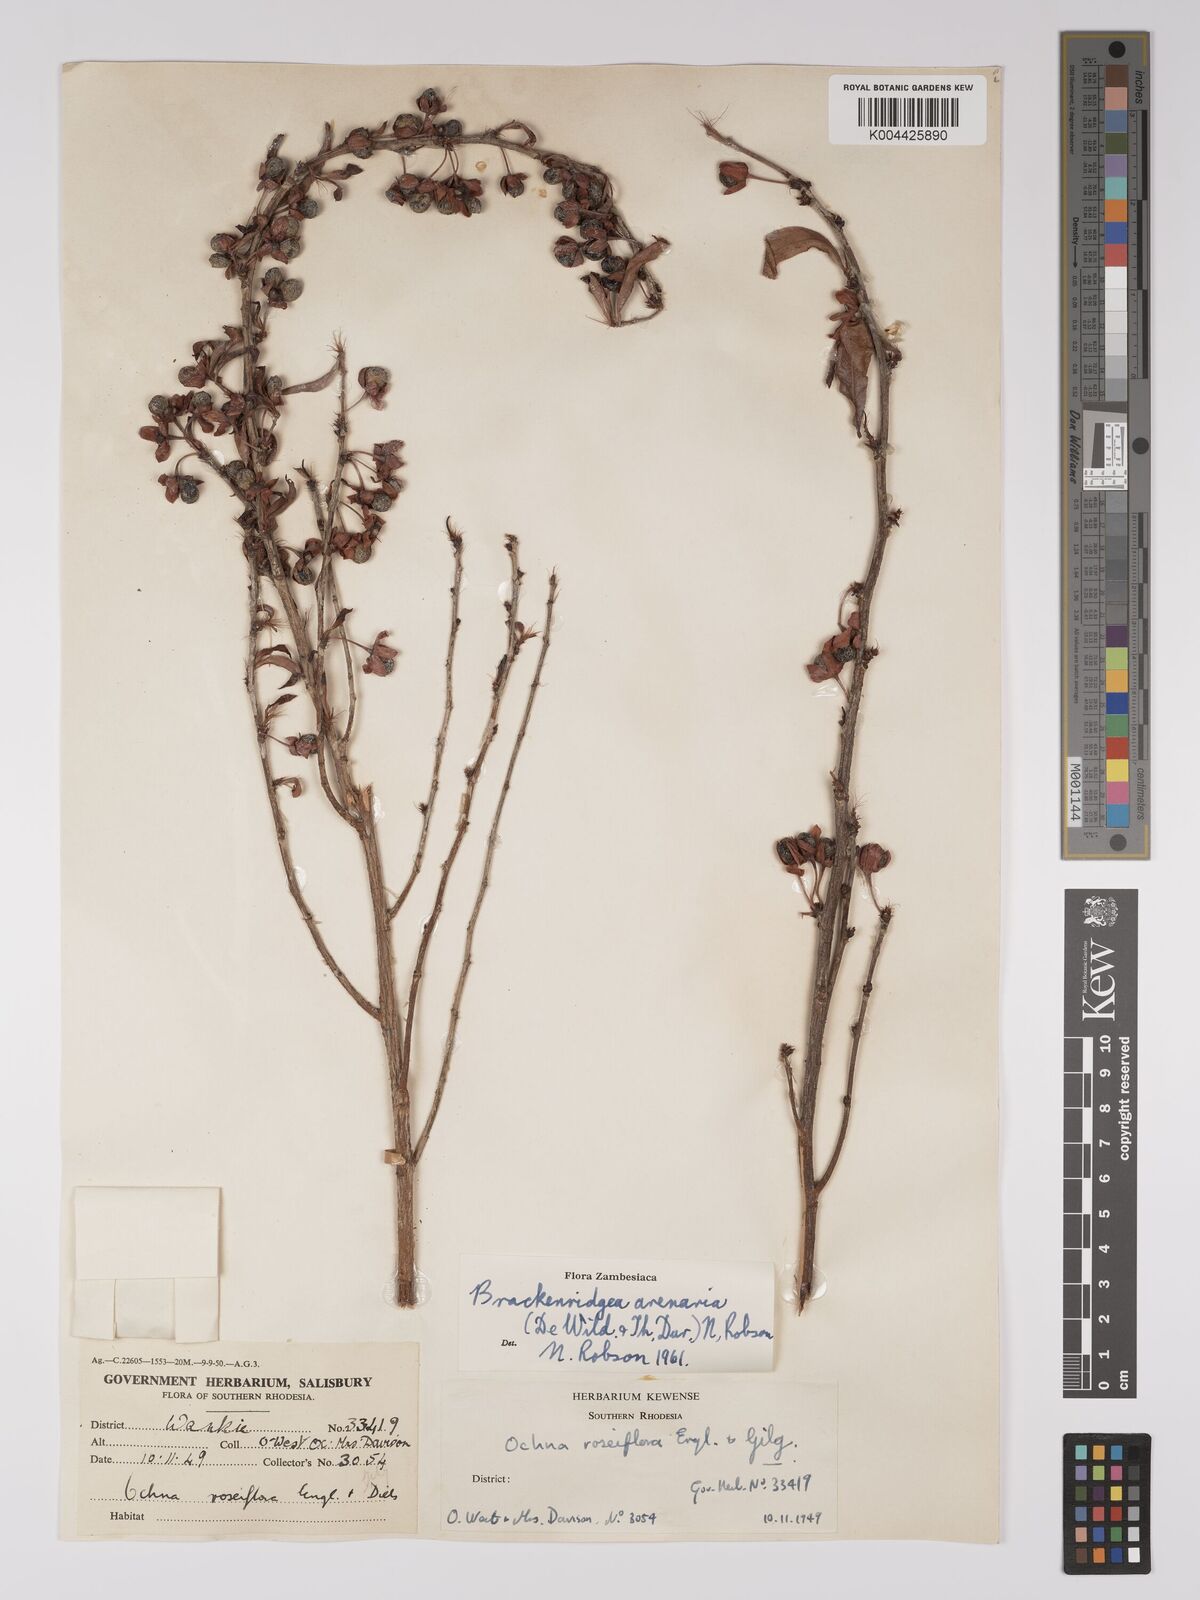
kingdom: Plantae
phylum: Tracheophyta
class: Magnoliopsida
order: Malpighiales
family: Ochnaceae
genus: Ochna
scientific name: Ochna arenaria
